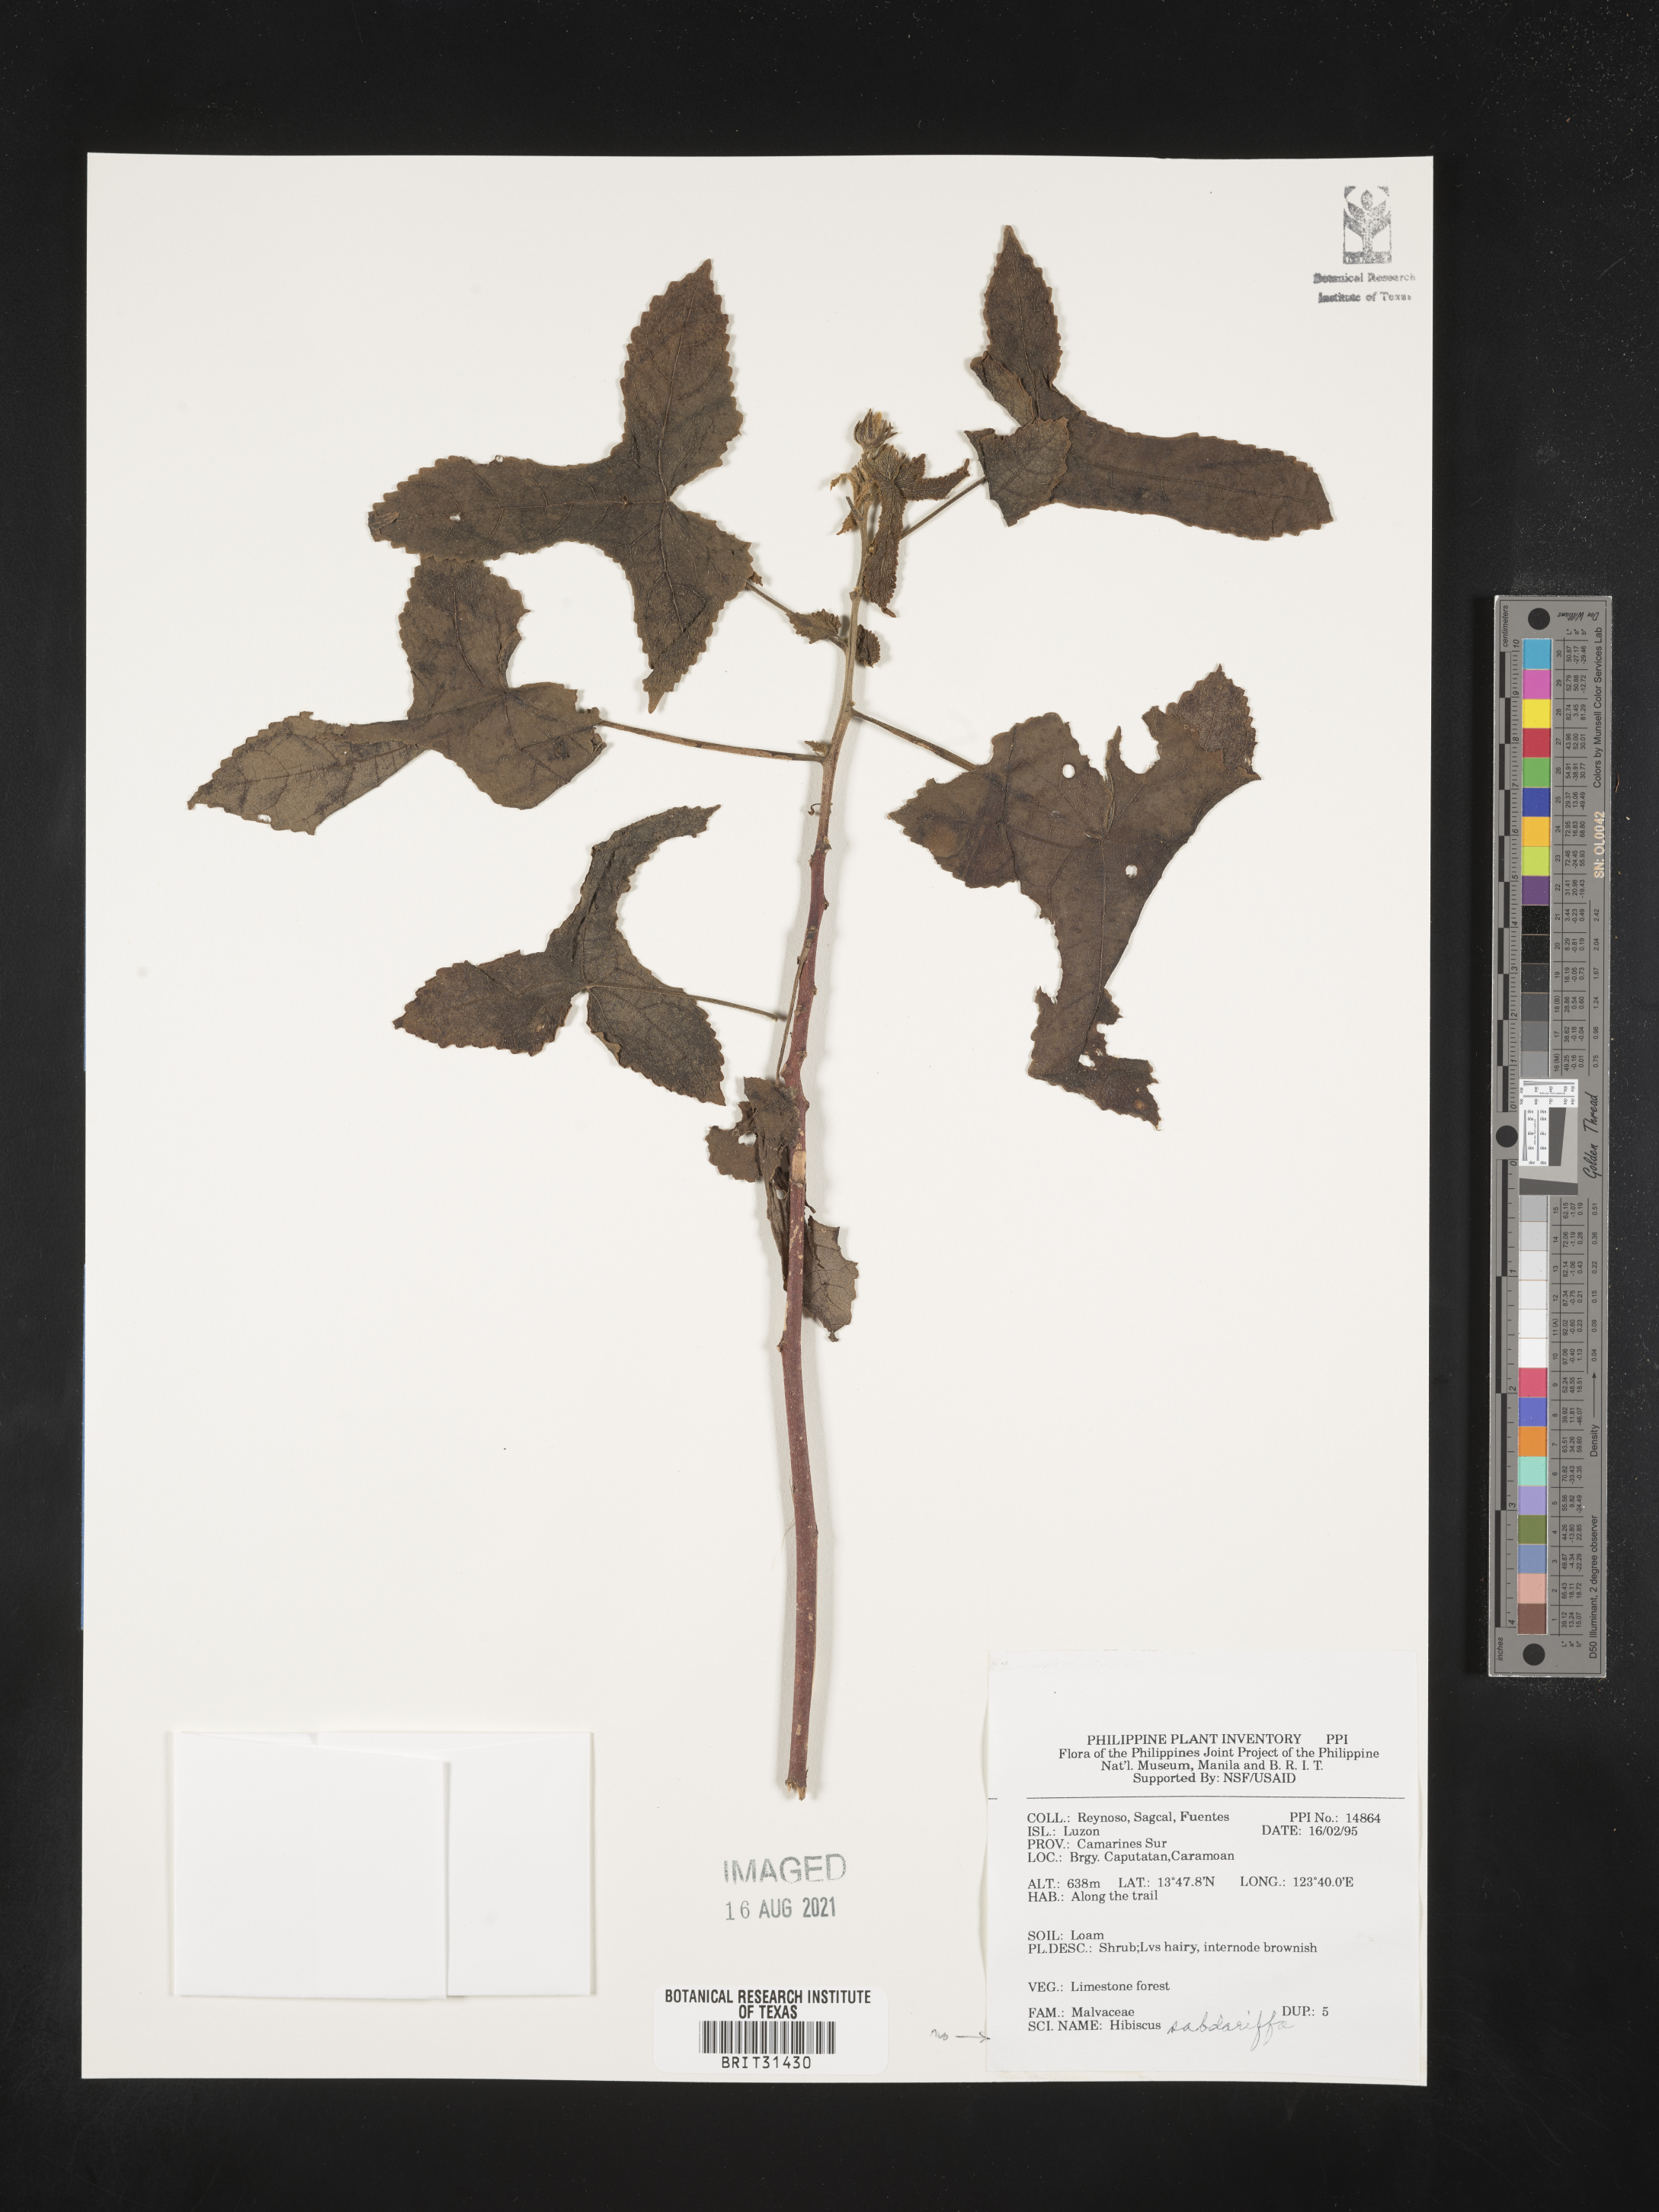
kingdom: Plantae
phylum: Tracheophyta
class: Magnoliopsida
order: Malvales
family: Malvaceae
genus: Hibiscus
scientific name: Hibiscus sabdariffa
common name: Roselle
